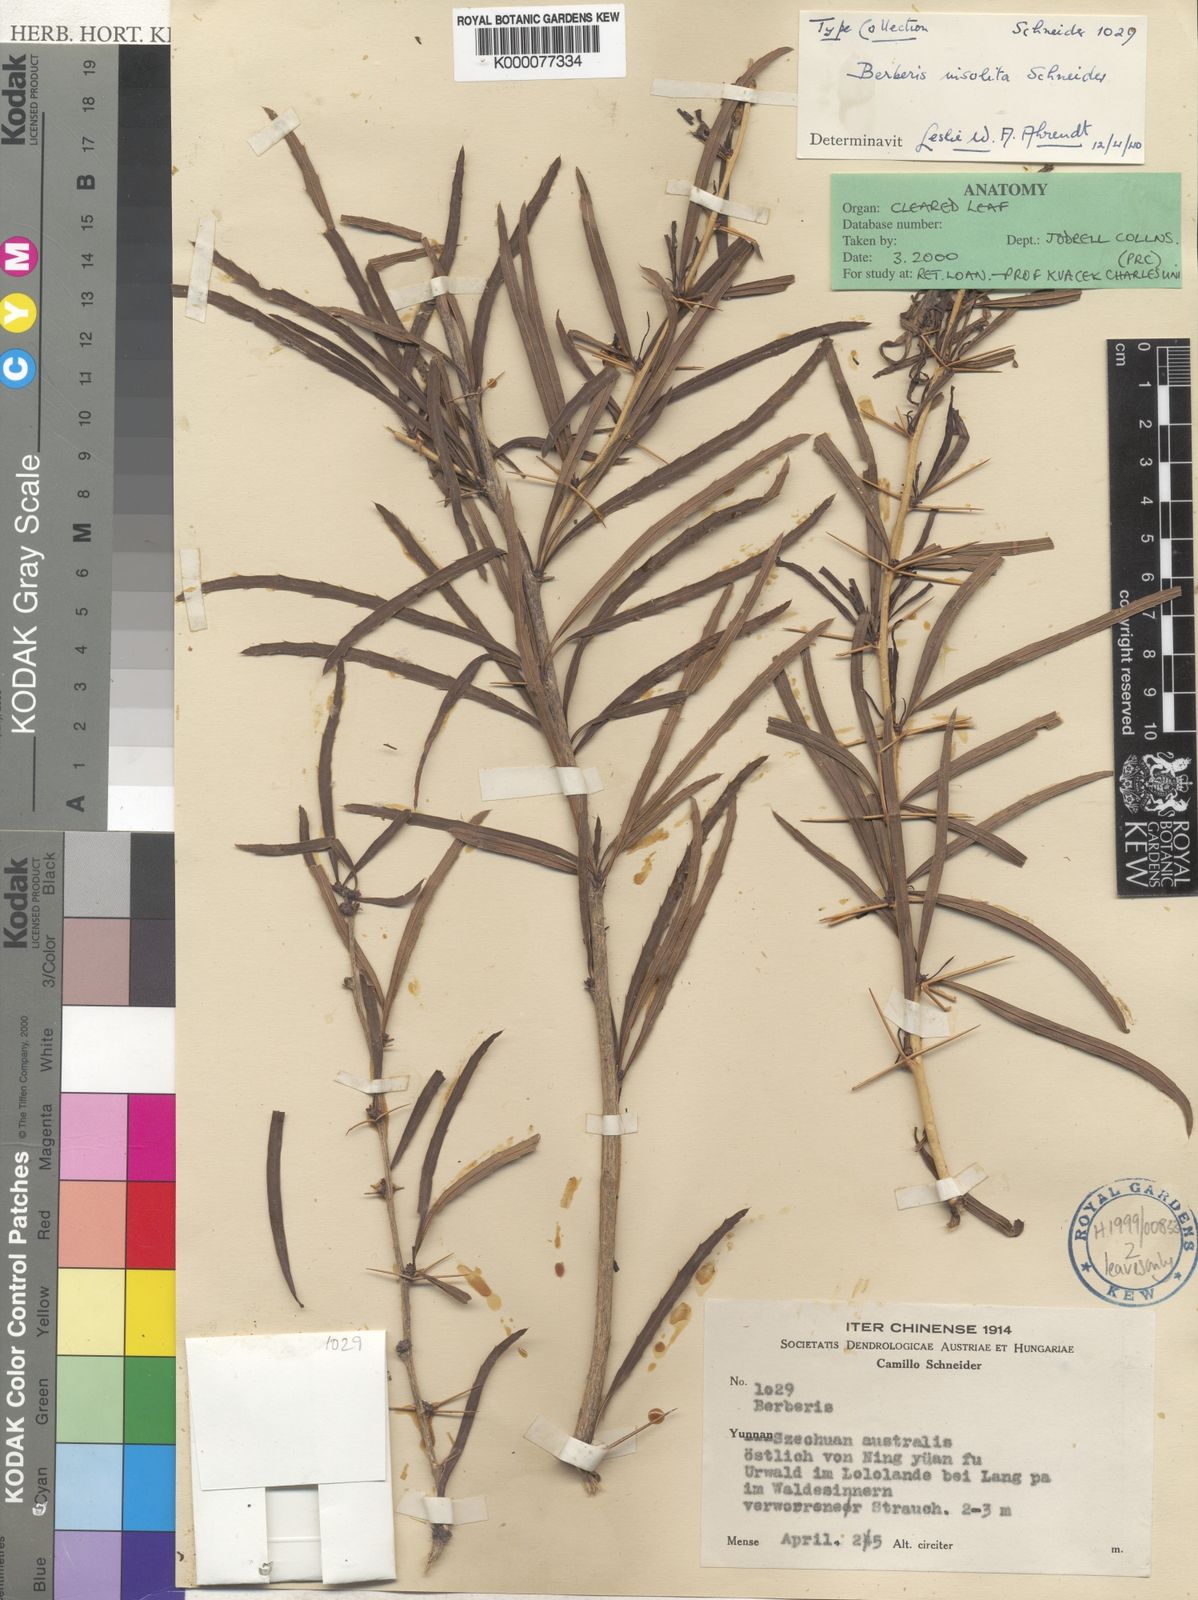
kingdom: Plantae
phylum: Tracheophyta
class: Magnoliopsida
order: Ranunculales
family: Berberidaceae
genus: Berberis
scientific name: Berberis insolita
